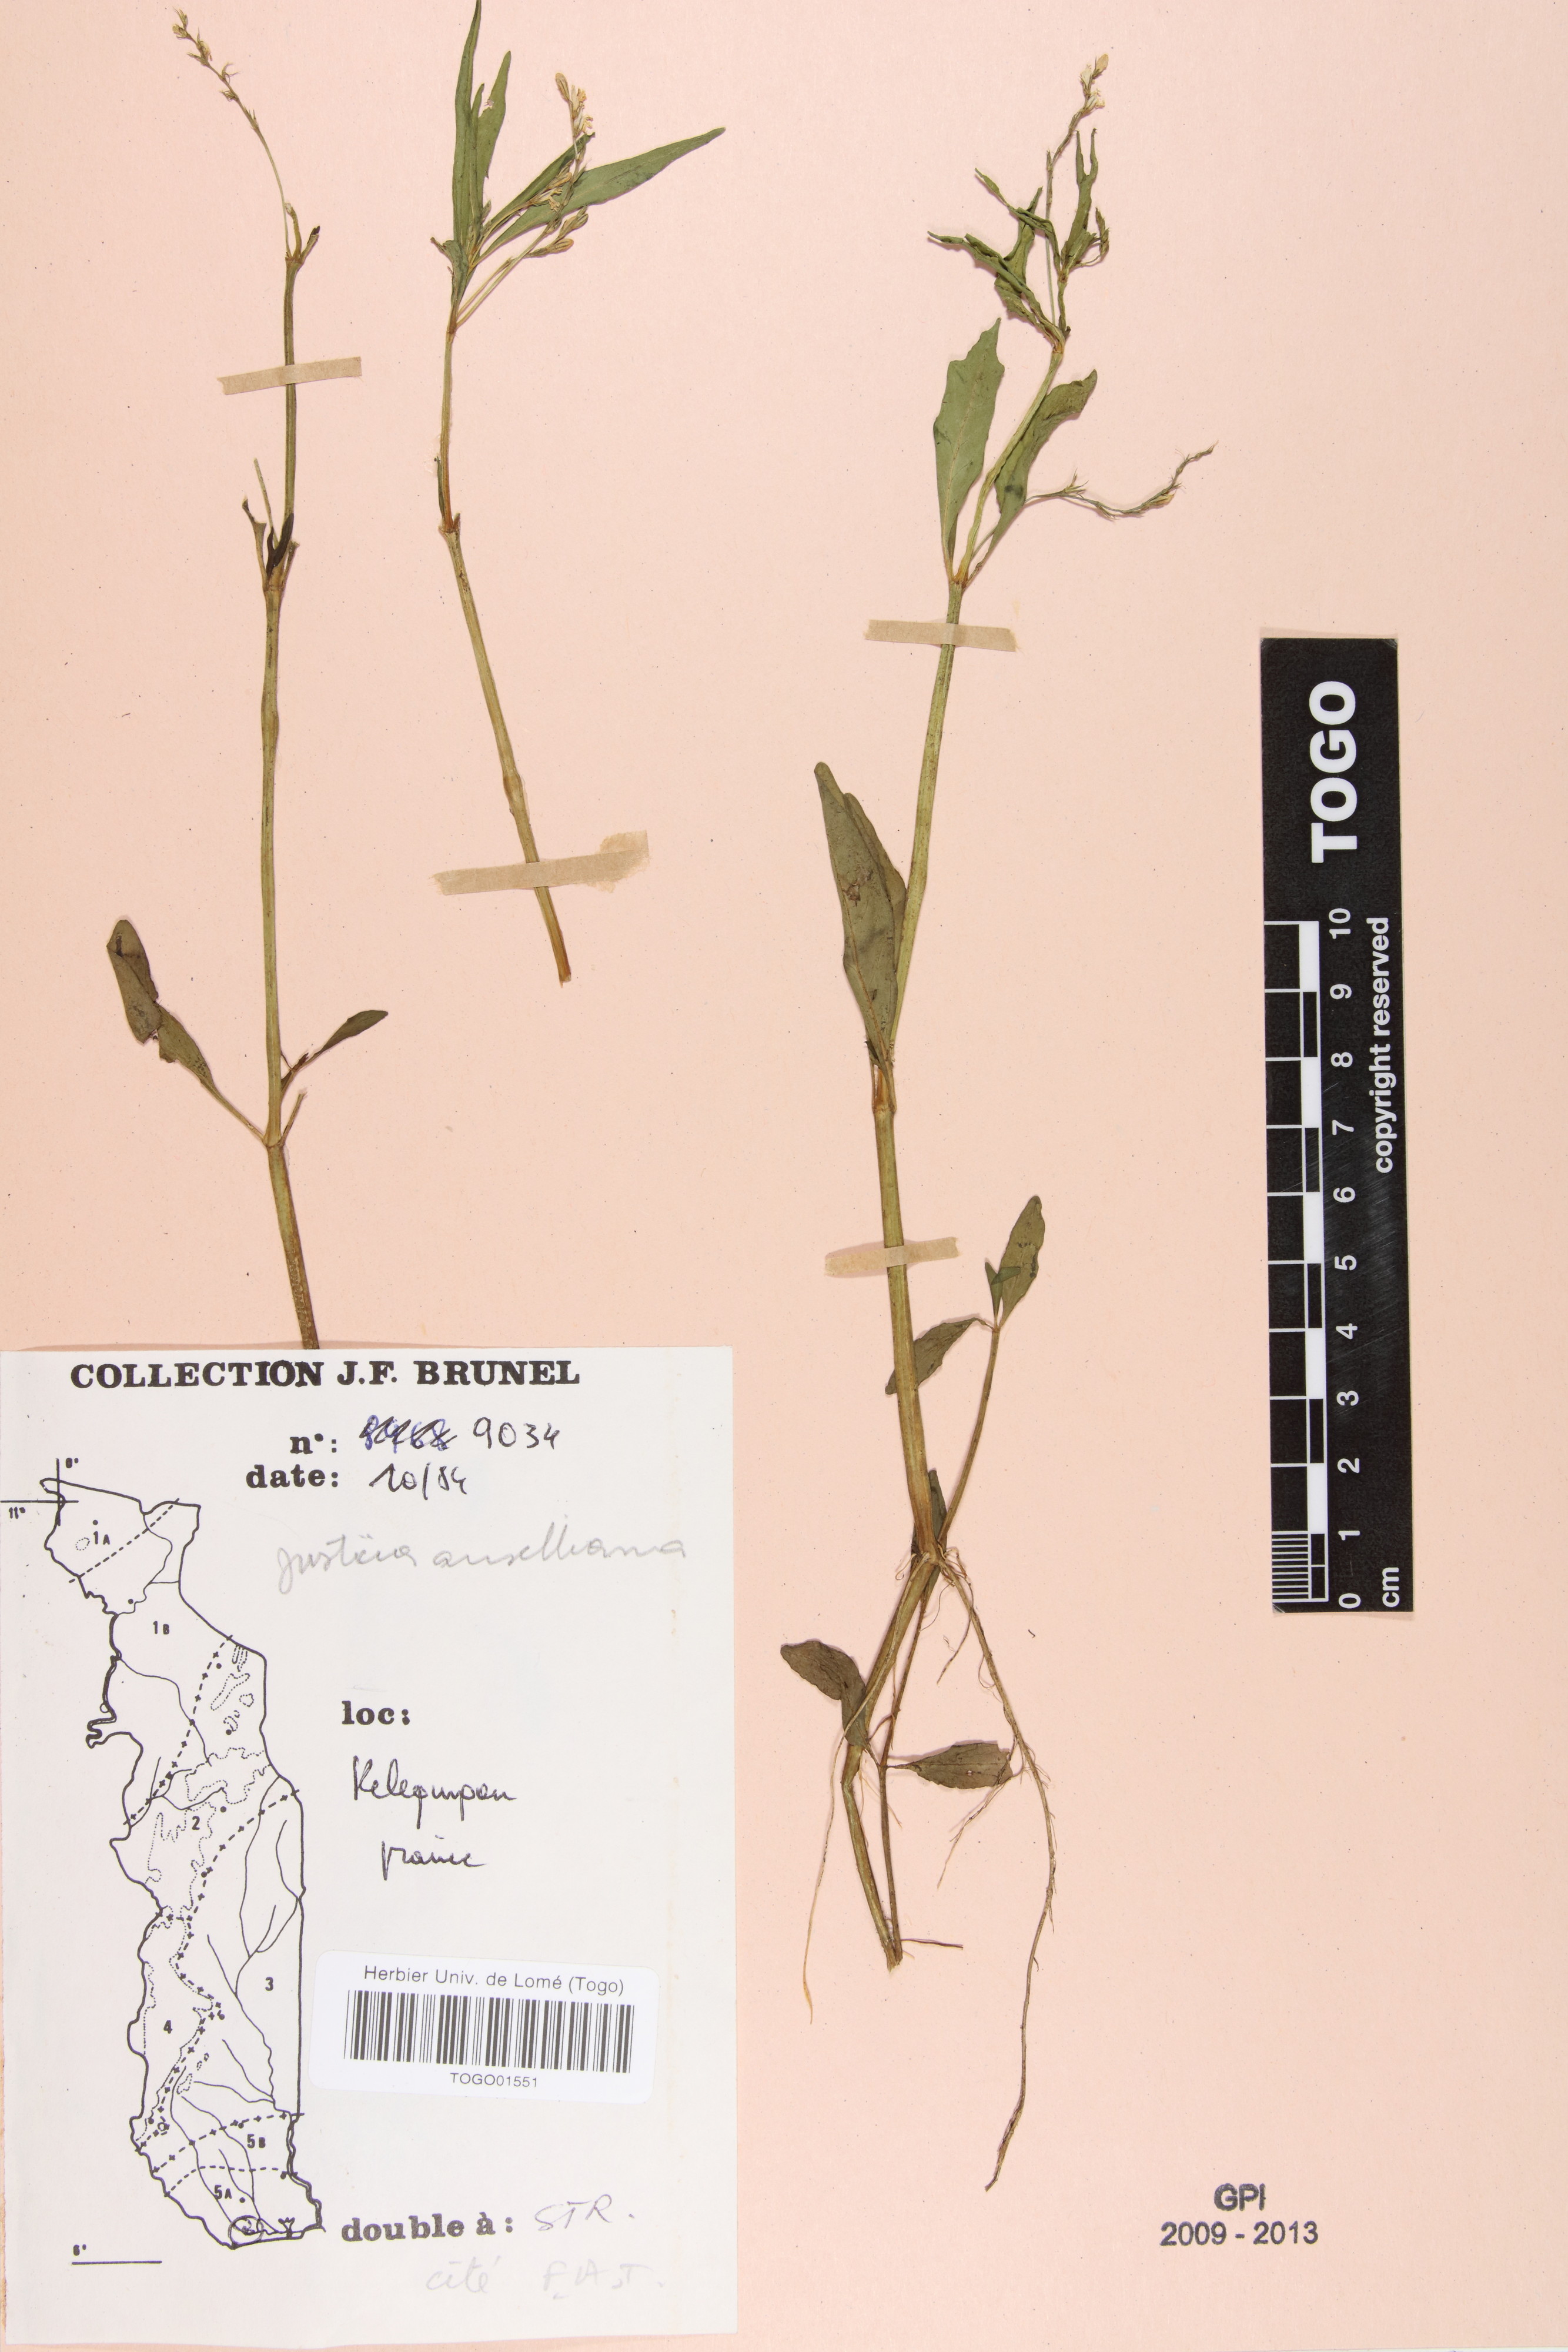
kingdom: Plantae
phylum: Tracheophyta
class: Magnoliopsida
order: Lamiales
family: Acanthaceae
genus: Justicia
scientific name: Justicia anselliana
